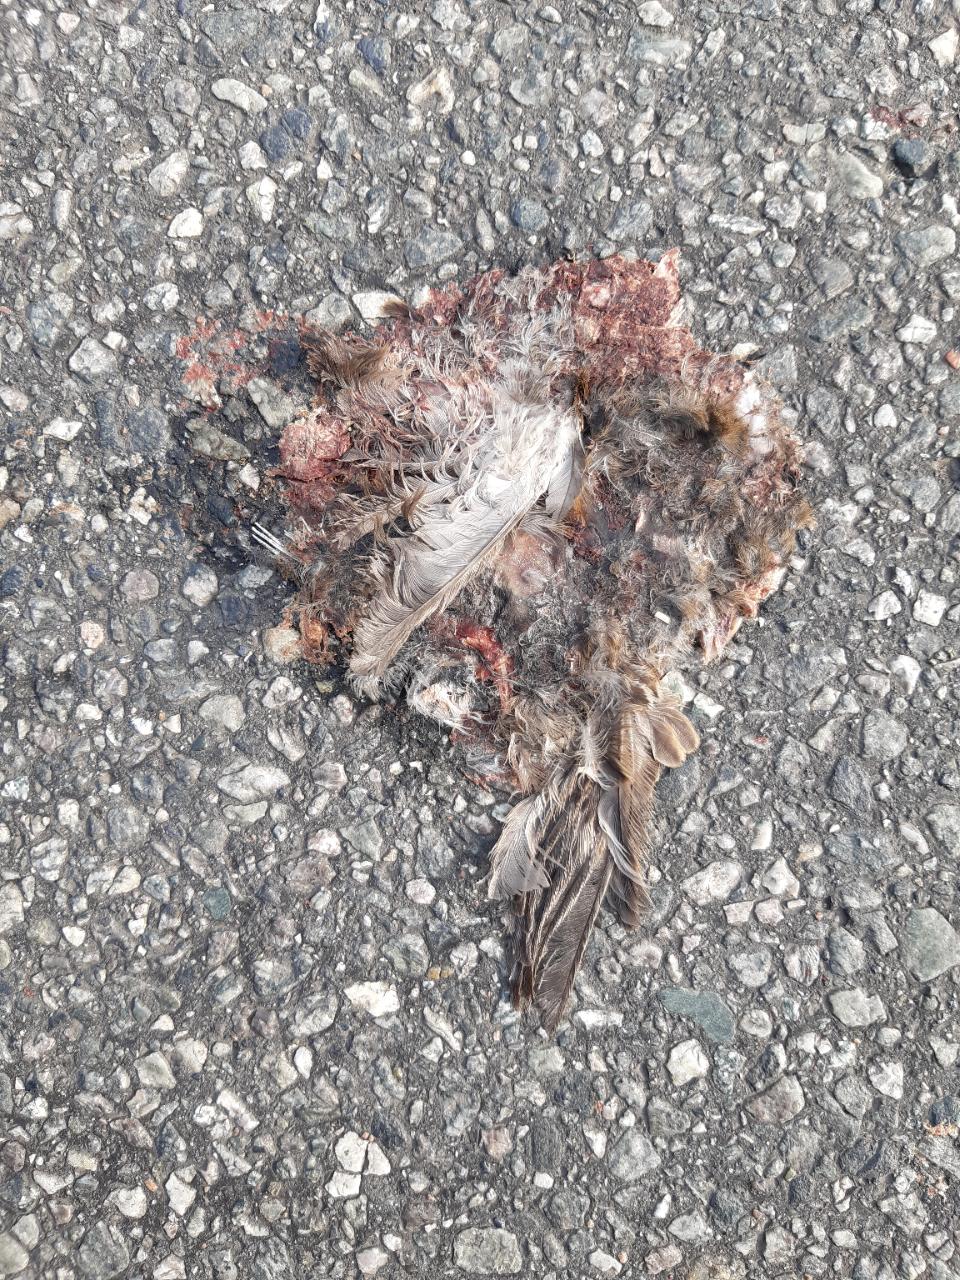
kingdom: Animalia
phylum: Chordata
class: Aves
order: Passeriformes
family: Passeridae
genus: Passer
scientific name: Passer domesticus
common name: House sparrow
